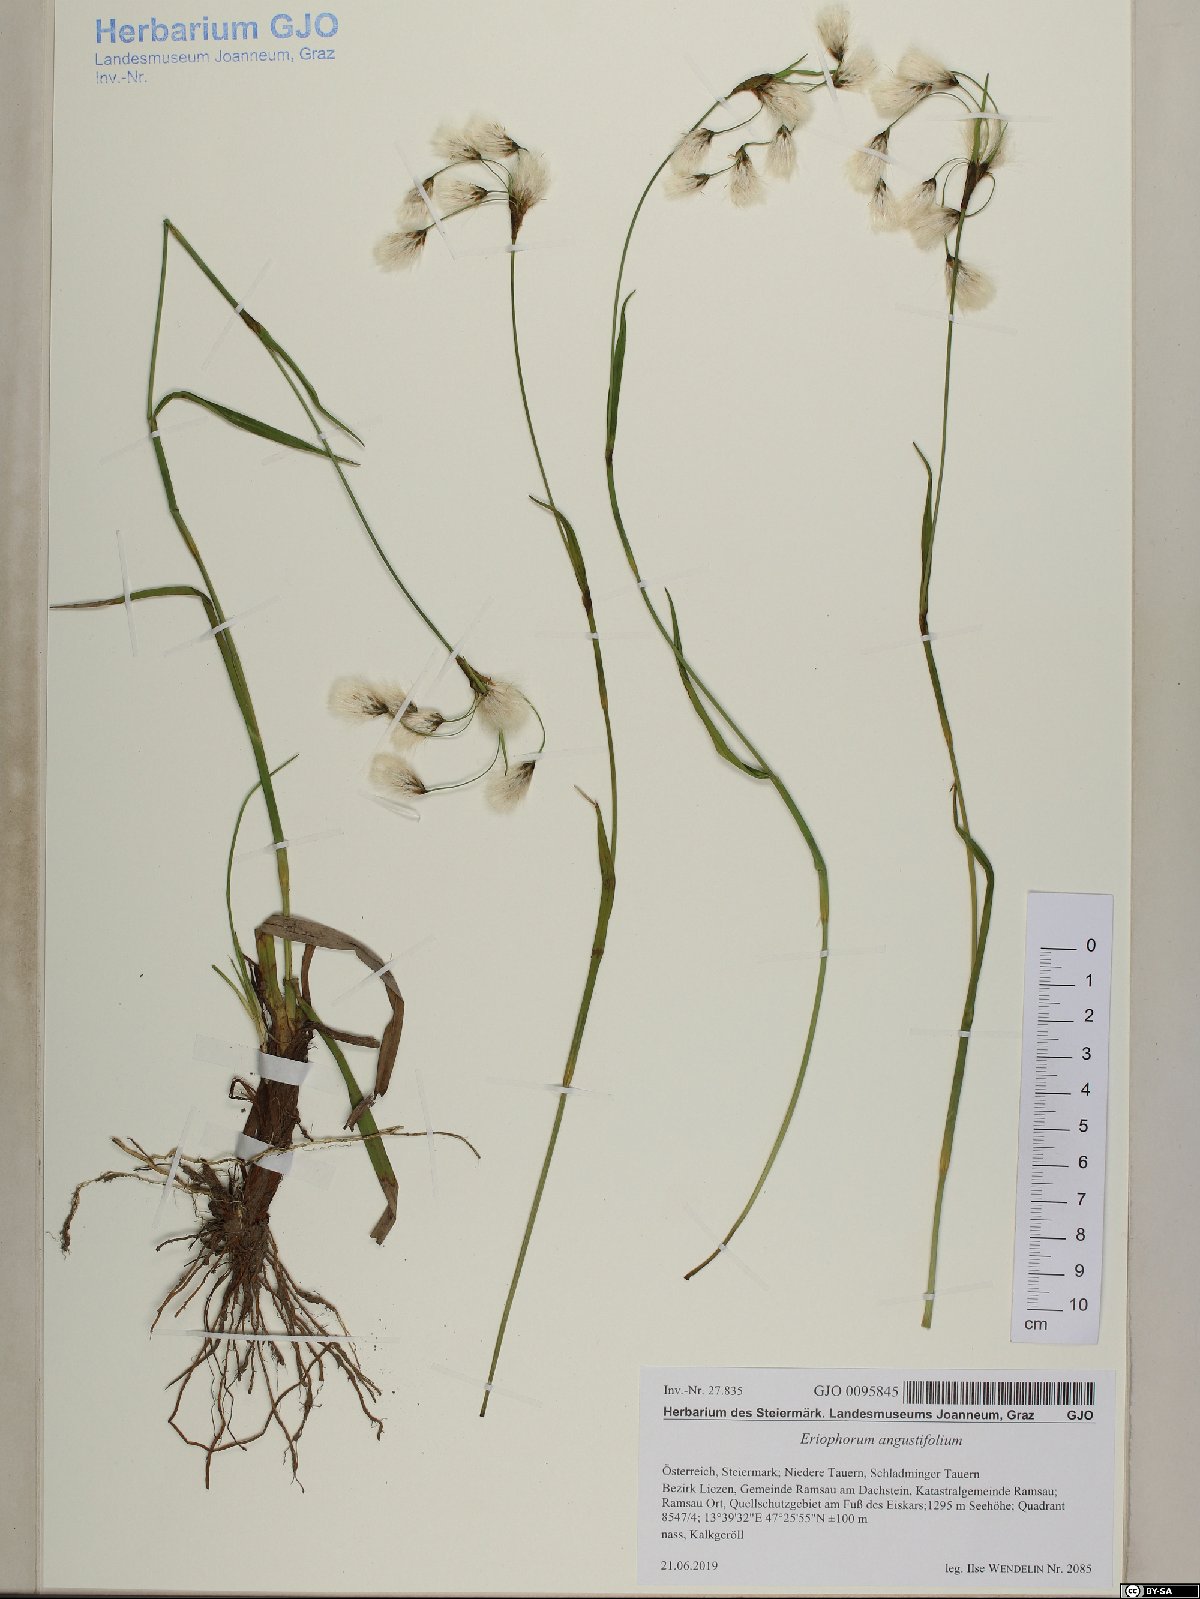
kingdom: Plantae
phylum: Tracheophyta
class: Liliopsida
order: Poales
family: Cyperaceae
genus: Eriophorum
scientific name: Eriophorum angustifolium
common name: Common cottongrass
